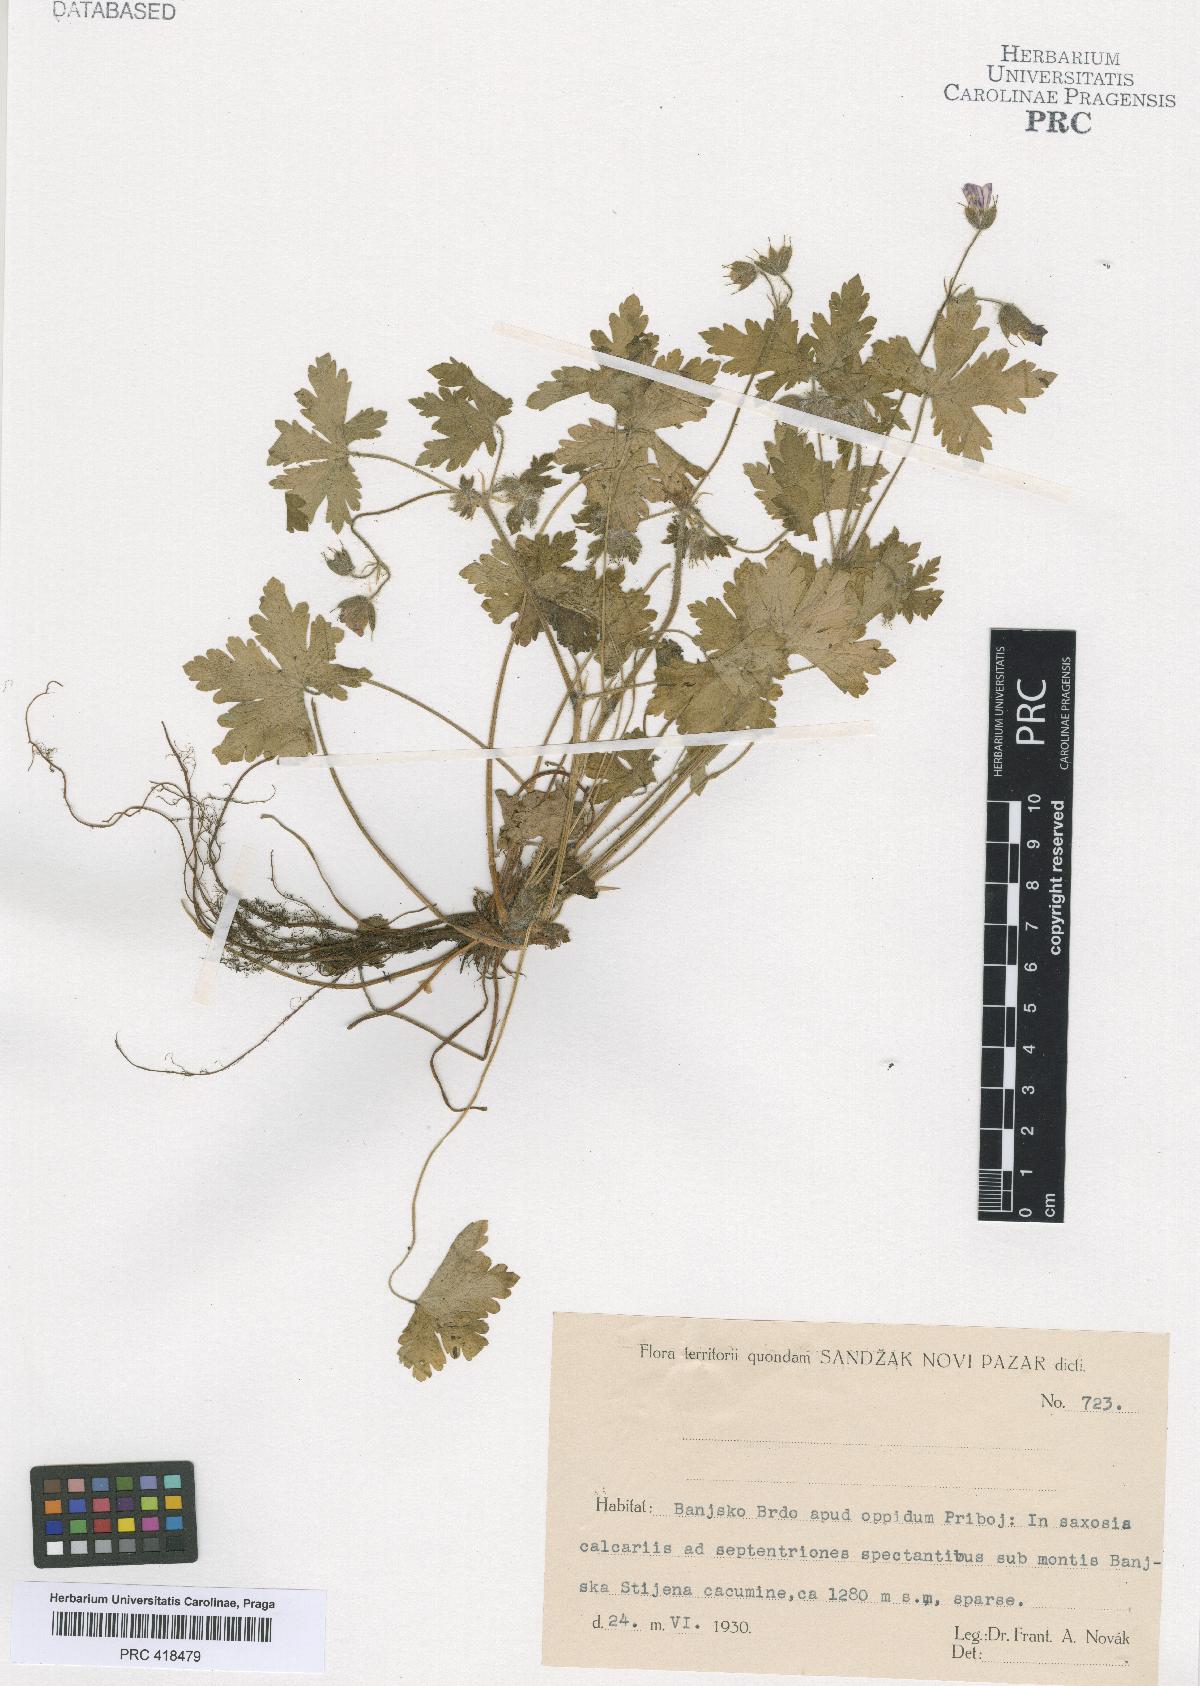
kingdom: Plantae
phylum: Tracheophyta
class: Magnoliopsida
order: Geraniales
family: Geraniaceae
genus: Geranium
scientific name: Geranium bohemicum
